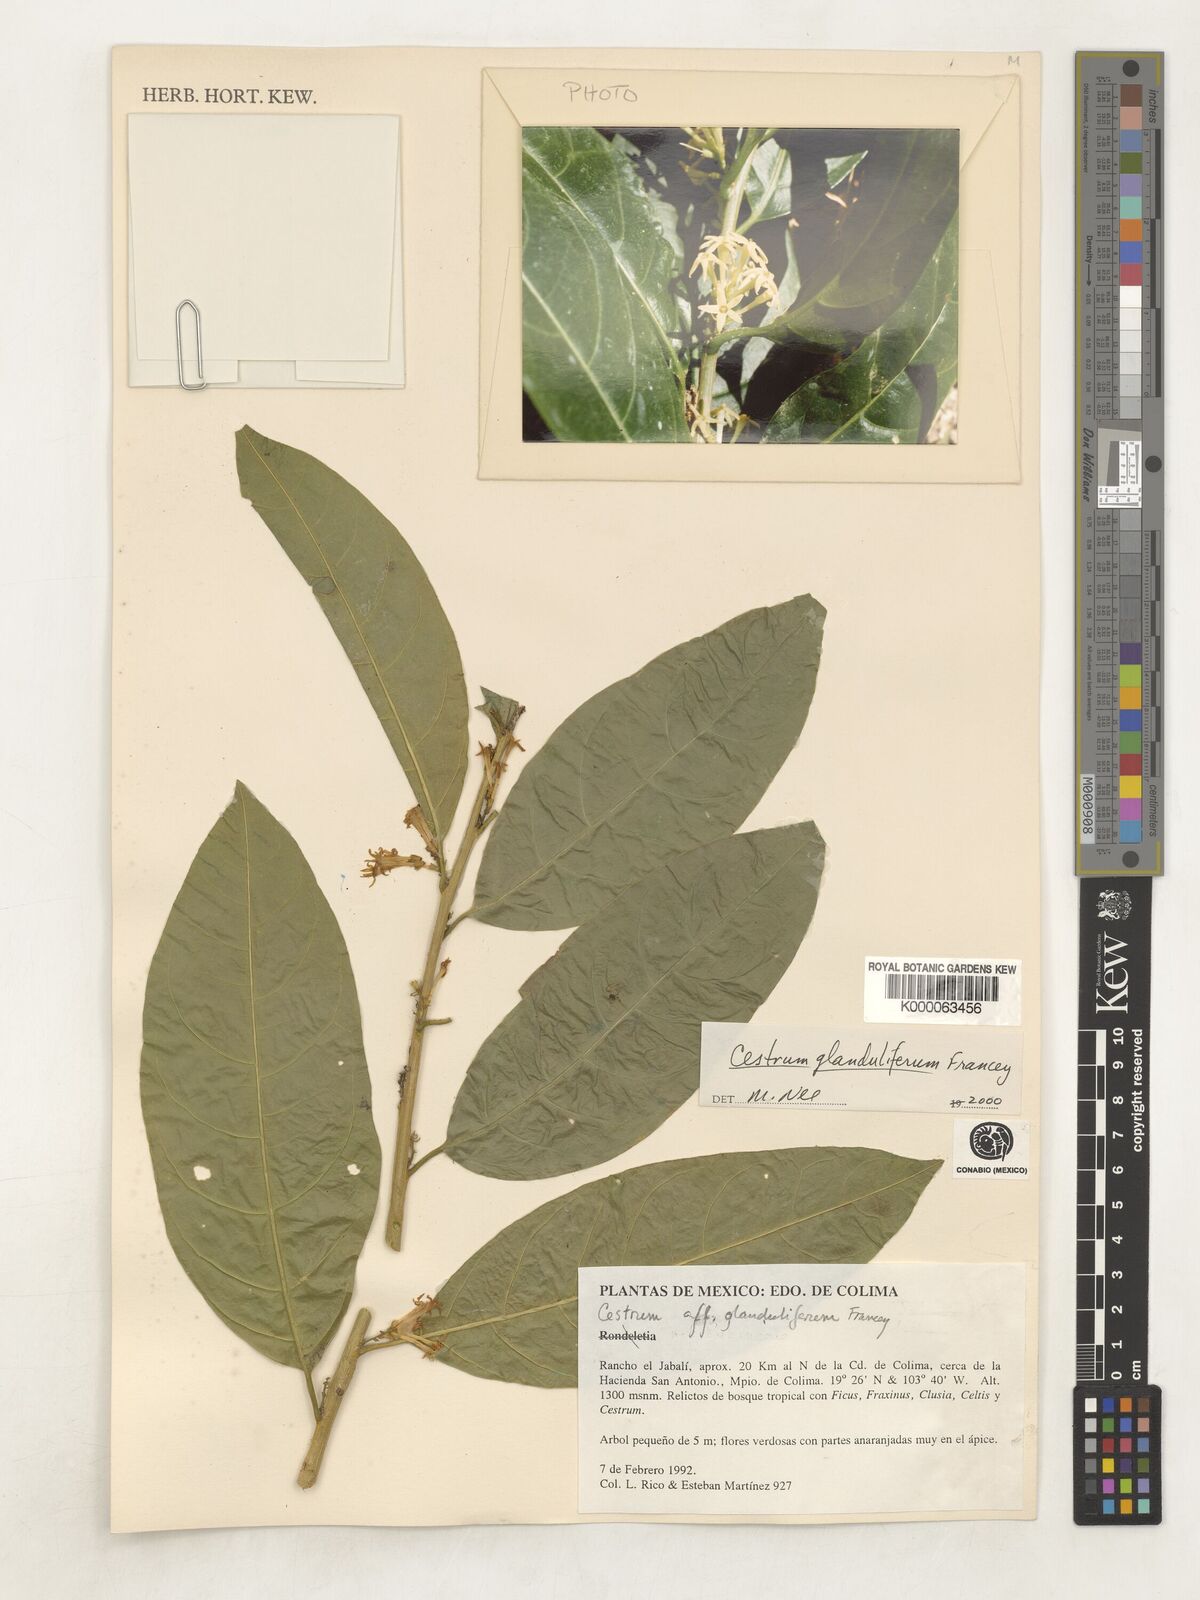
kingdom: Plantae
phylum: Tracheophyta
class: Magnoliopsida
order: Solanales
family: Solanaceae
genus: Cestrum
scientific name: Cestrum glanduliferum
